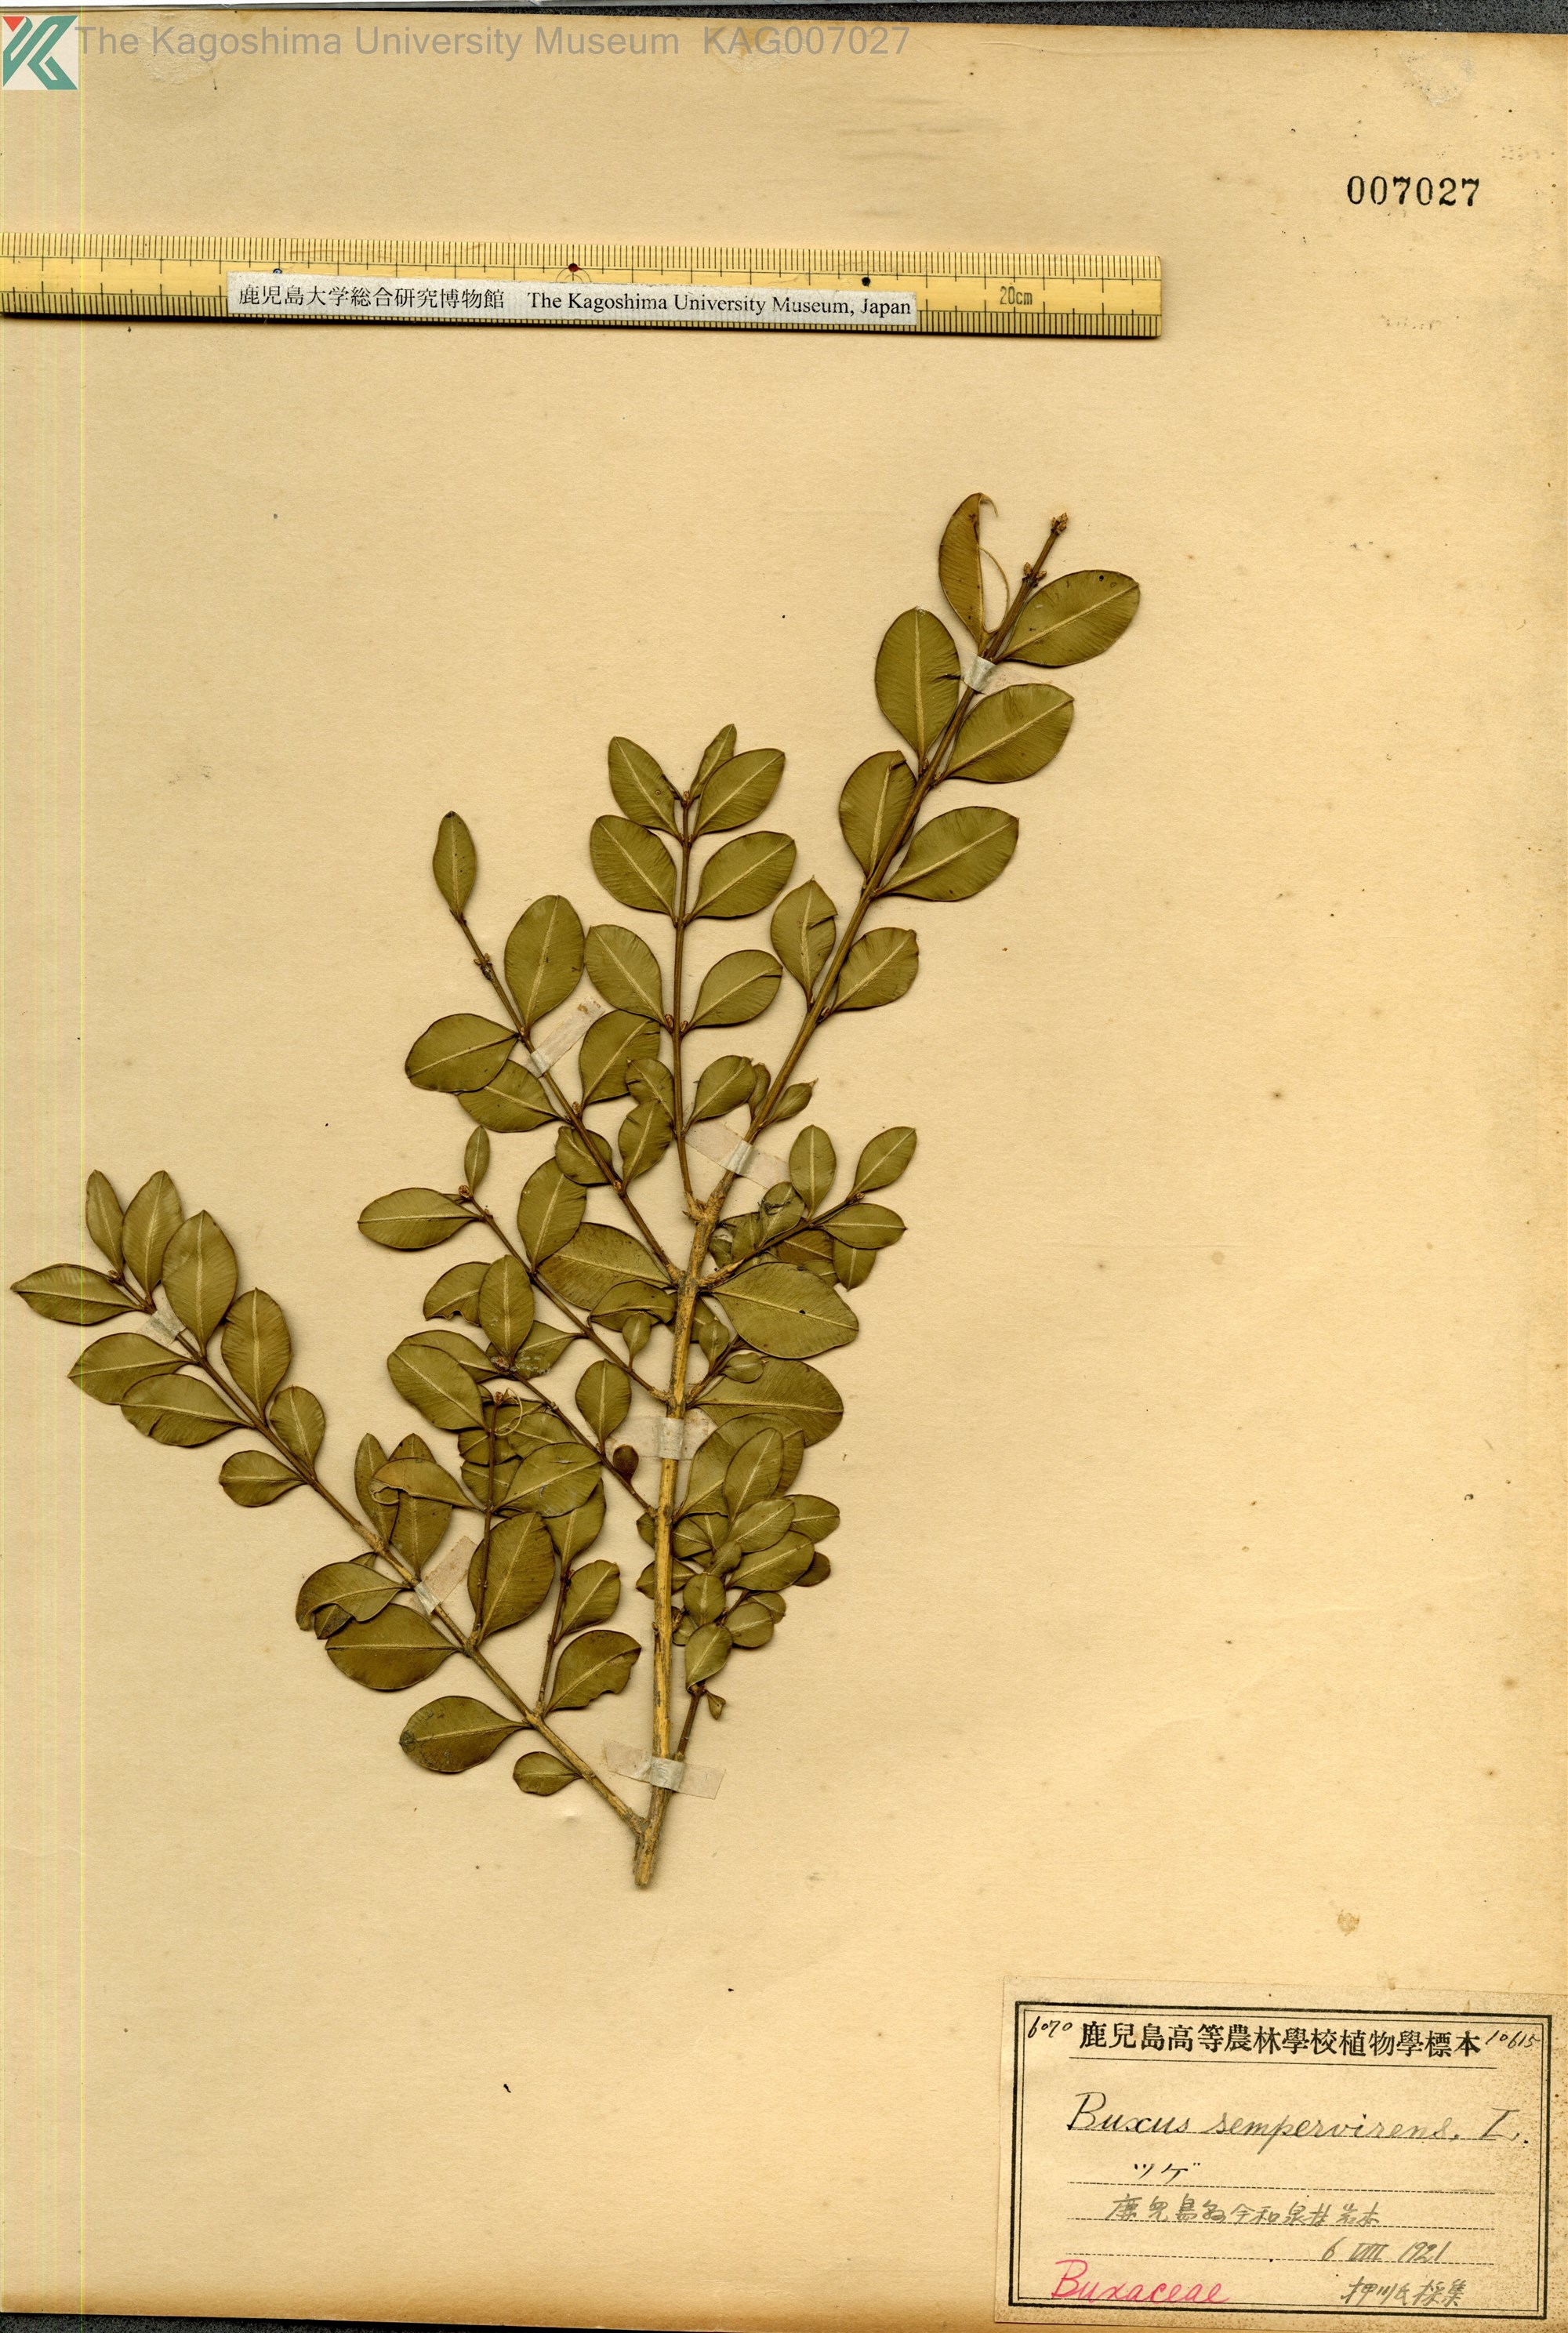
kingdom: Plantae
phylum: Tracheophyta
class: Magnoliopsida
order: Buxales
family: Buxaceae
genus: Buxus
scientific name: Buxus sinica
